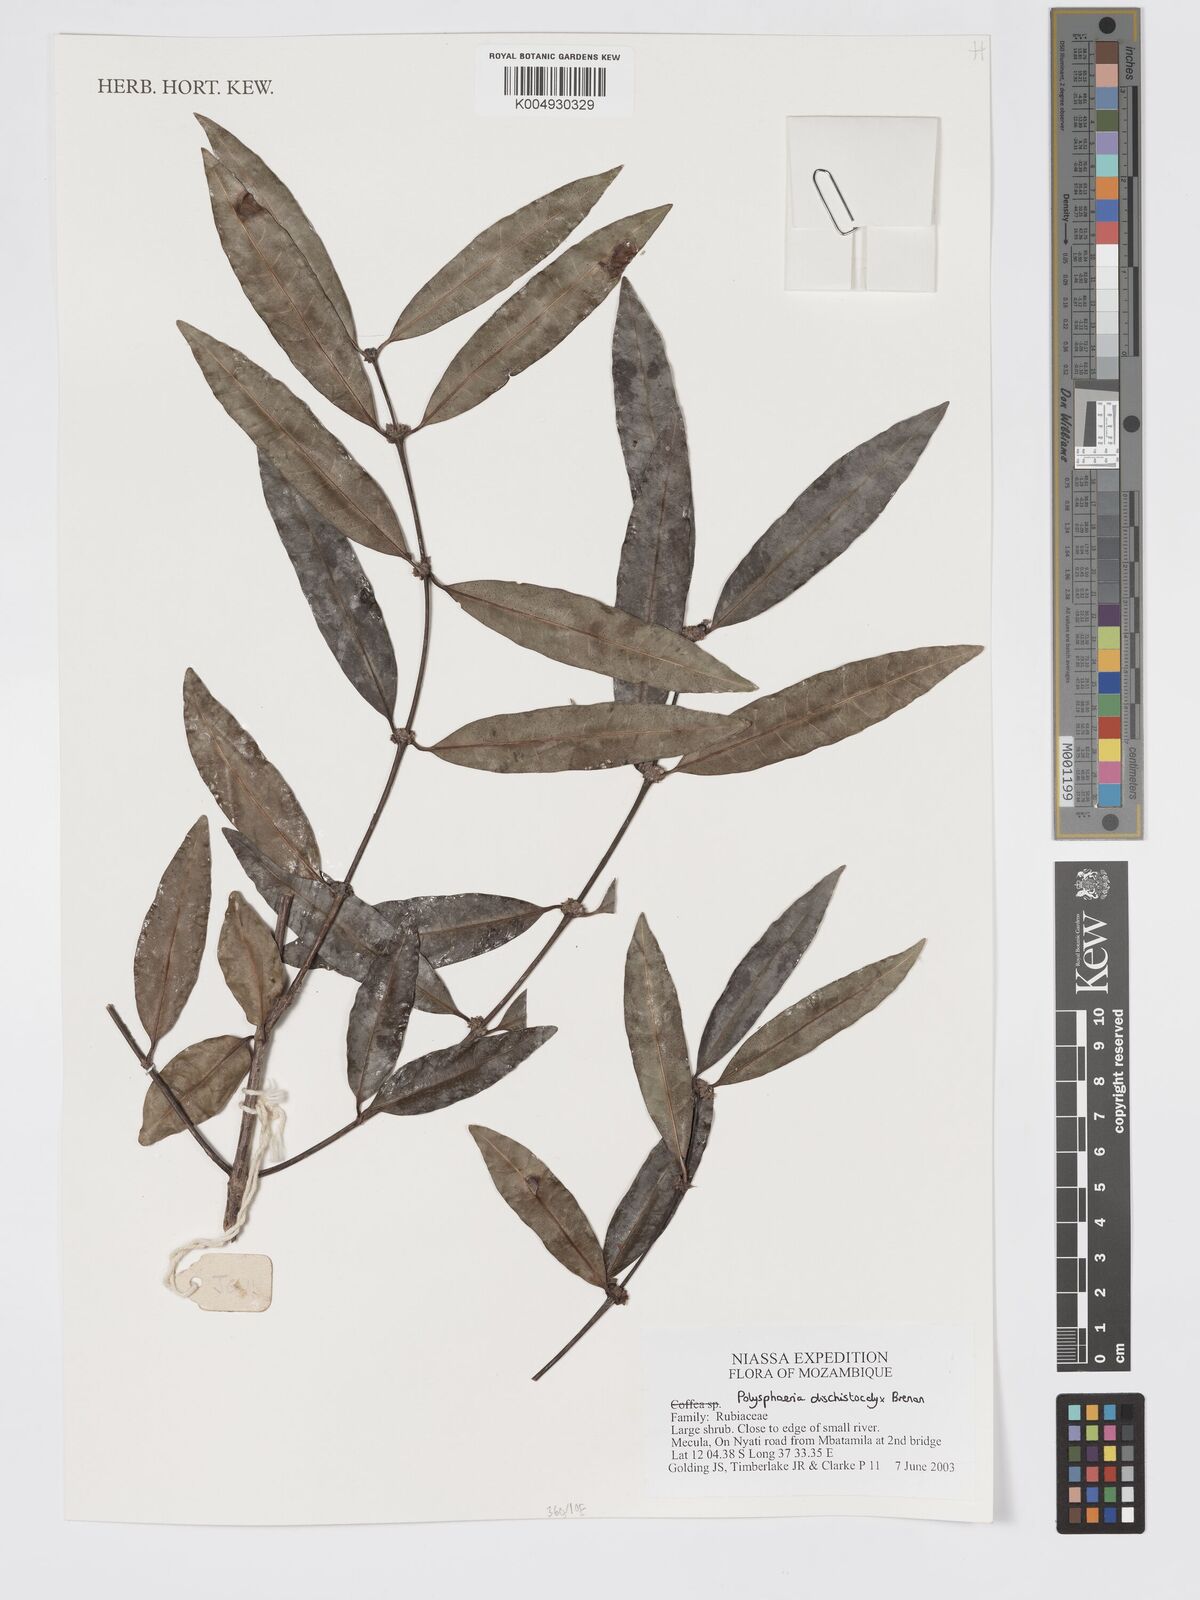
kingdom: Plantae
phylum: Tracheophyta
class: Magnoliopsida
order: Gentianales
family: Rubiaceae
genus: Polysphaeria
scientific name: Polysphaeria dischistocalyx
